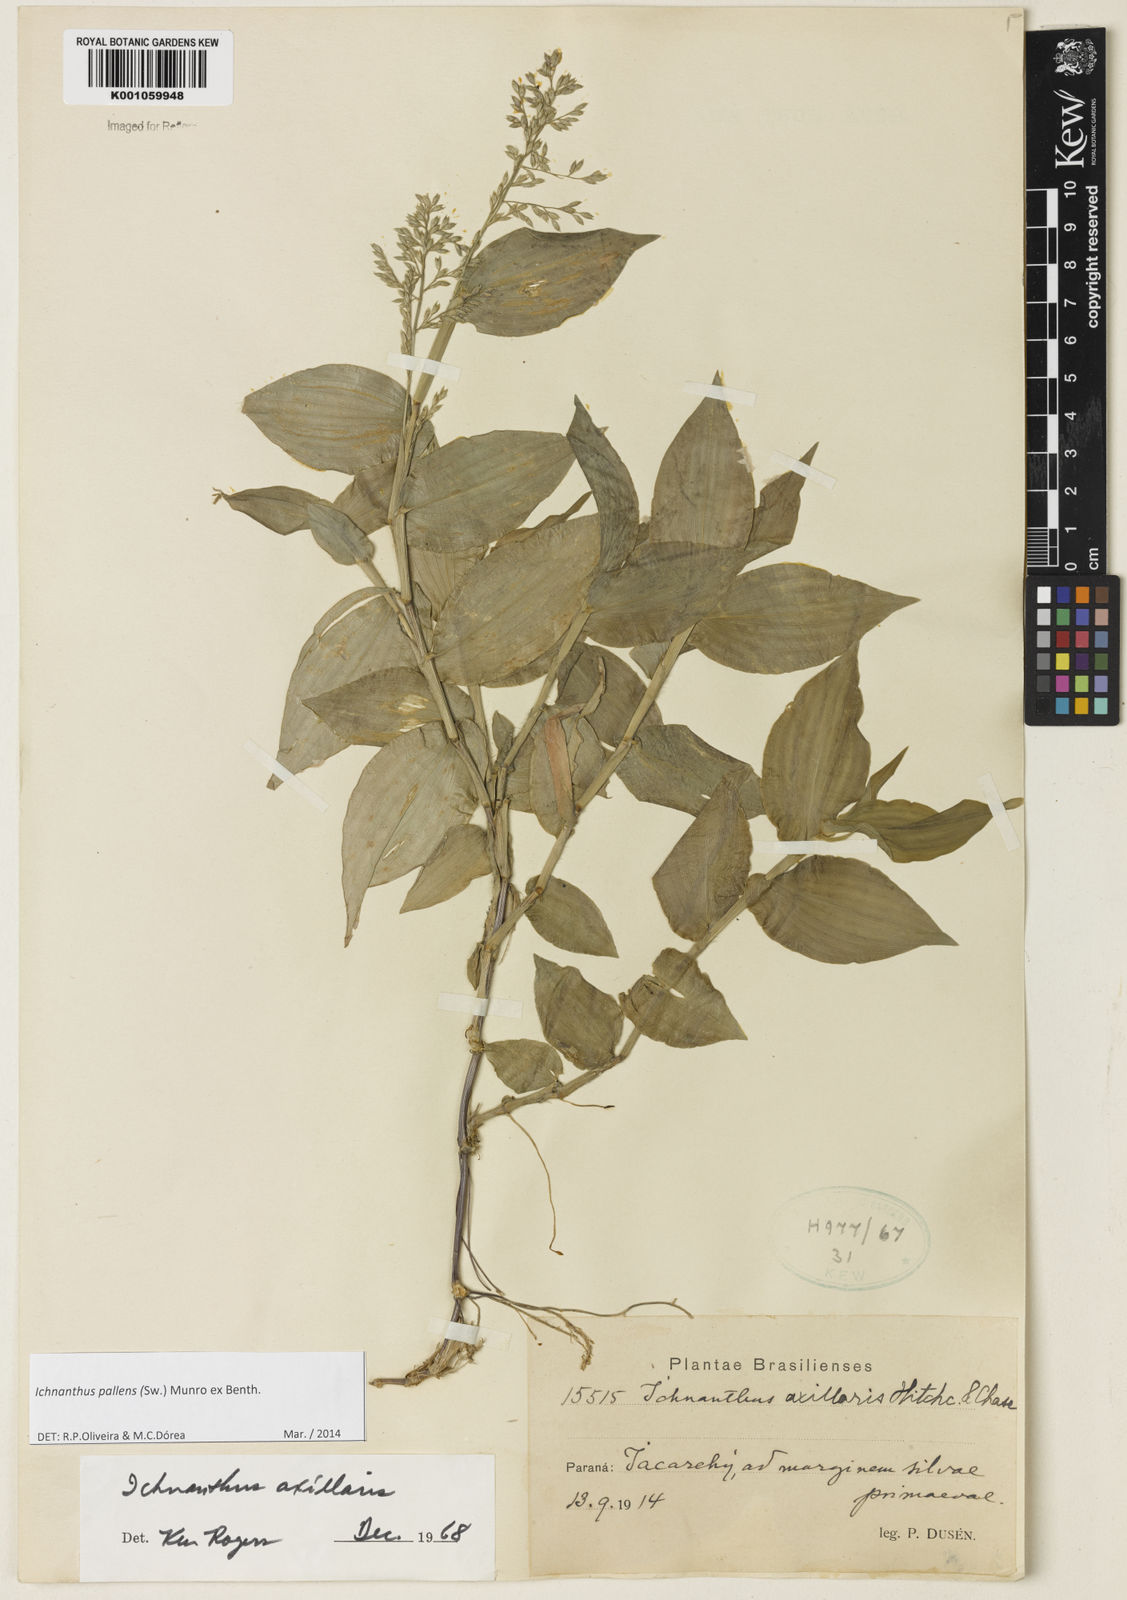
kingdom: Plantae
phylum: Tracheophyta
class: Liliopsida
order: Poales
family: Poaceae
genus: Ichnanthus
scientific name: Ichnanthus pallens
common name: Water grass
